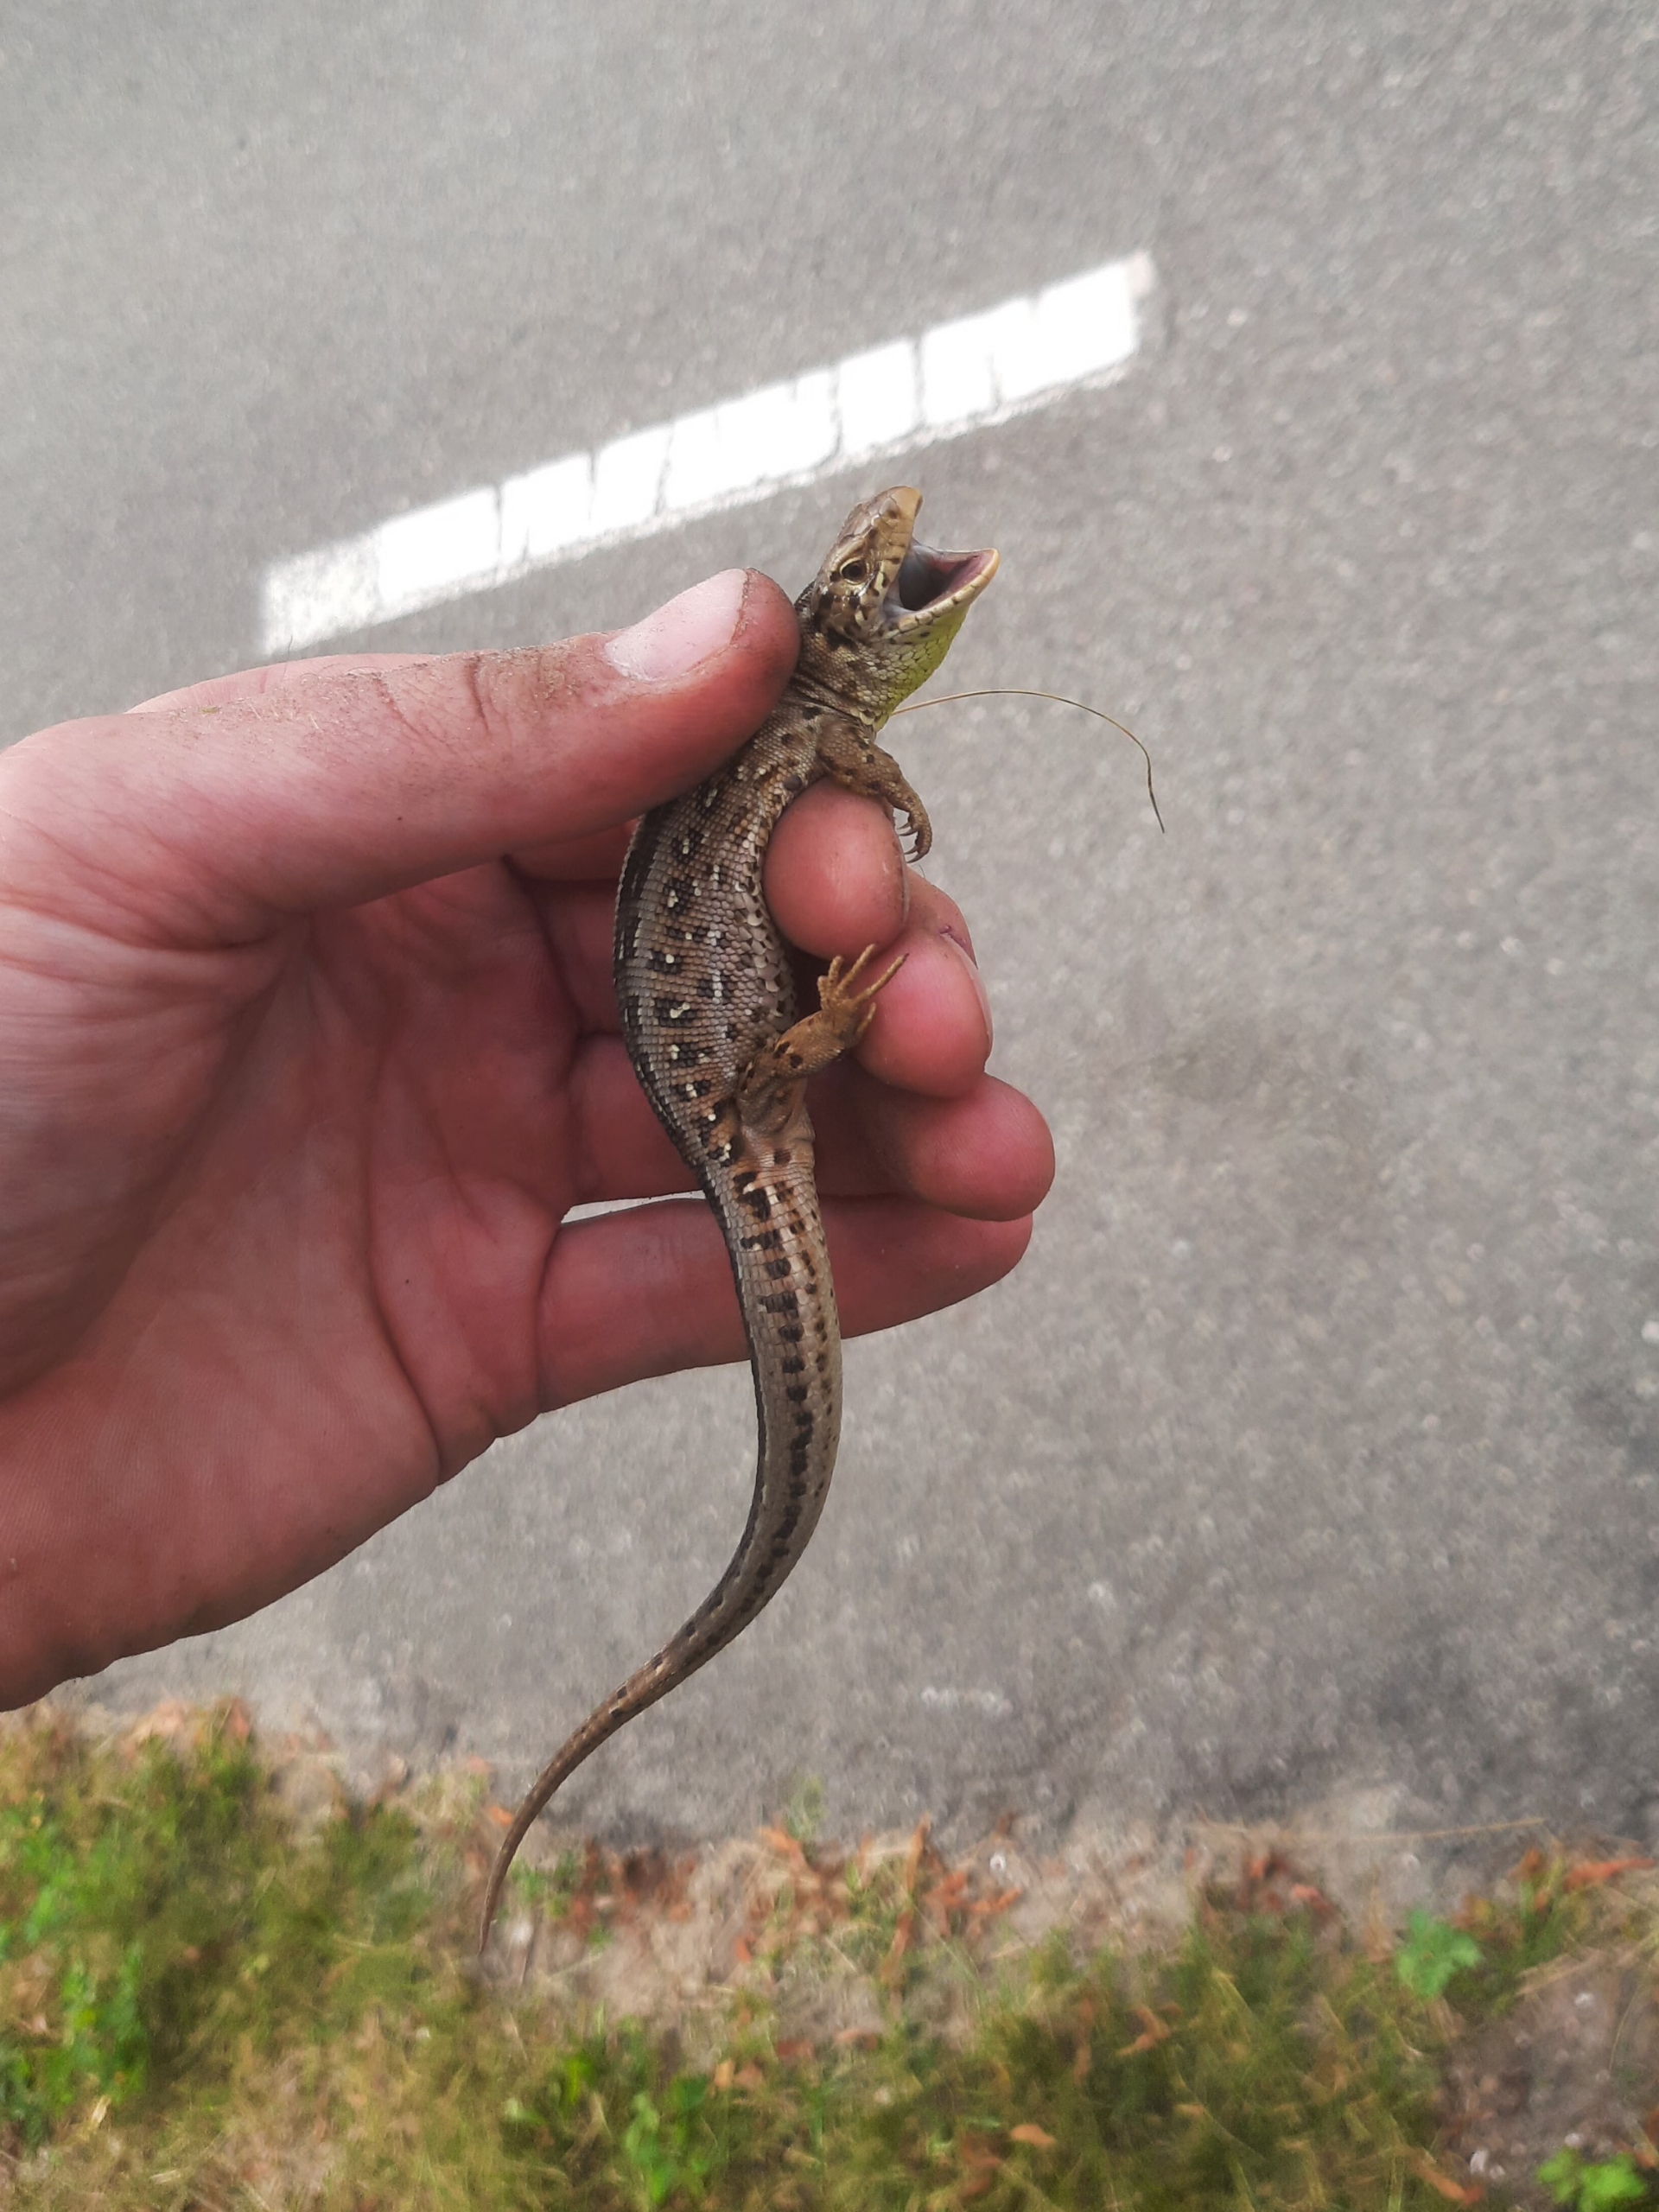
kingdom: Animalia
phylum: Chordata
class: Squamata
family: Lacertidae
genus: Lacerta
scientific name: Lacerta agilis
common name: Markfirben
